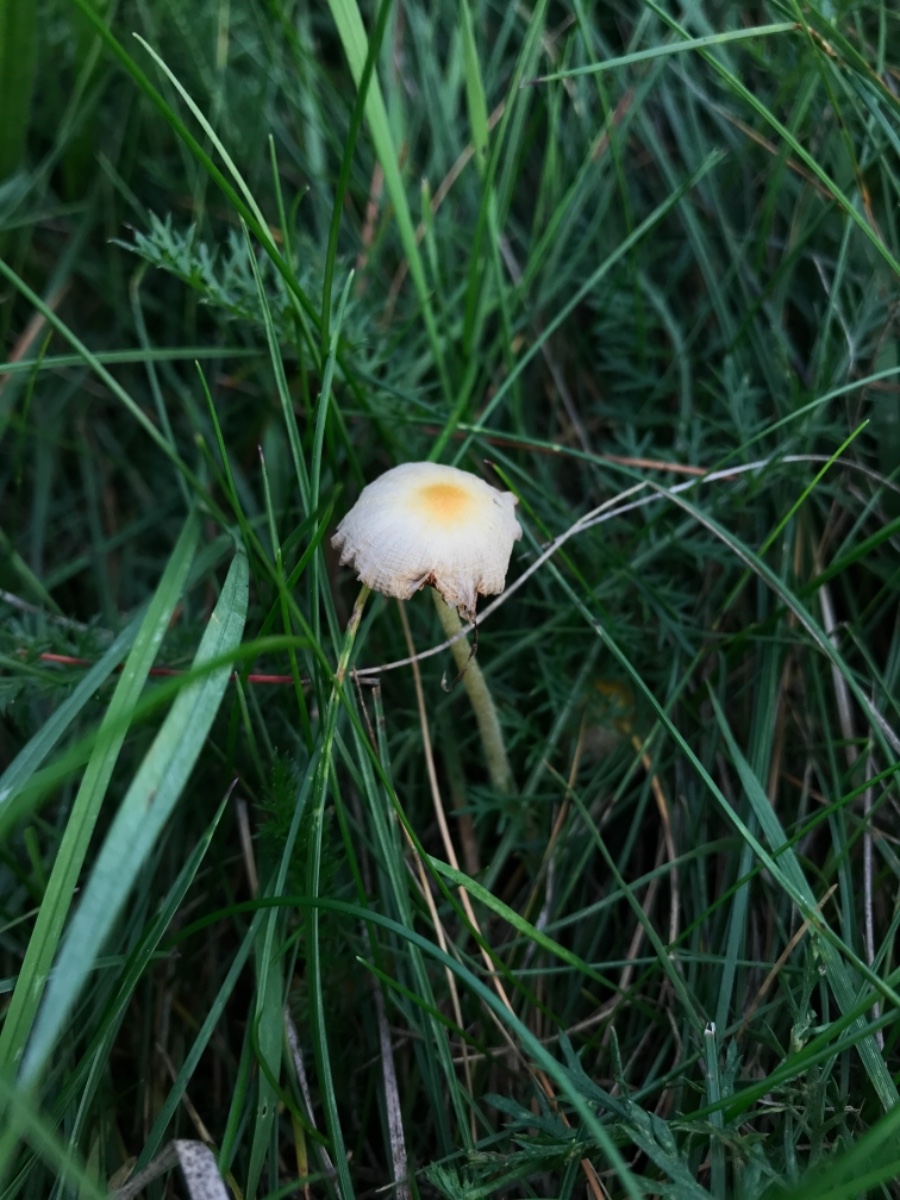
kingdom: Fungi
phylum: Basidiomycota
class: Agaricomycetes
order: Agaricales
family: Bolbitiaceae
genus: Bolbitius
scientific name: Bolbitius titubans
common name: almindelig gulhat
